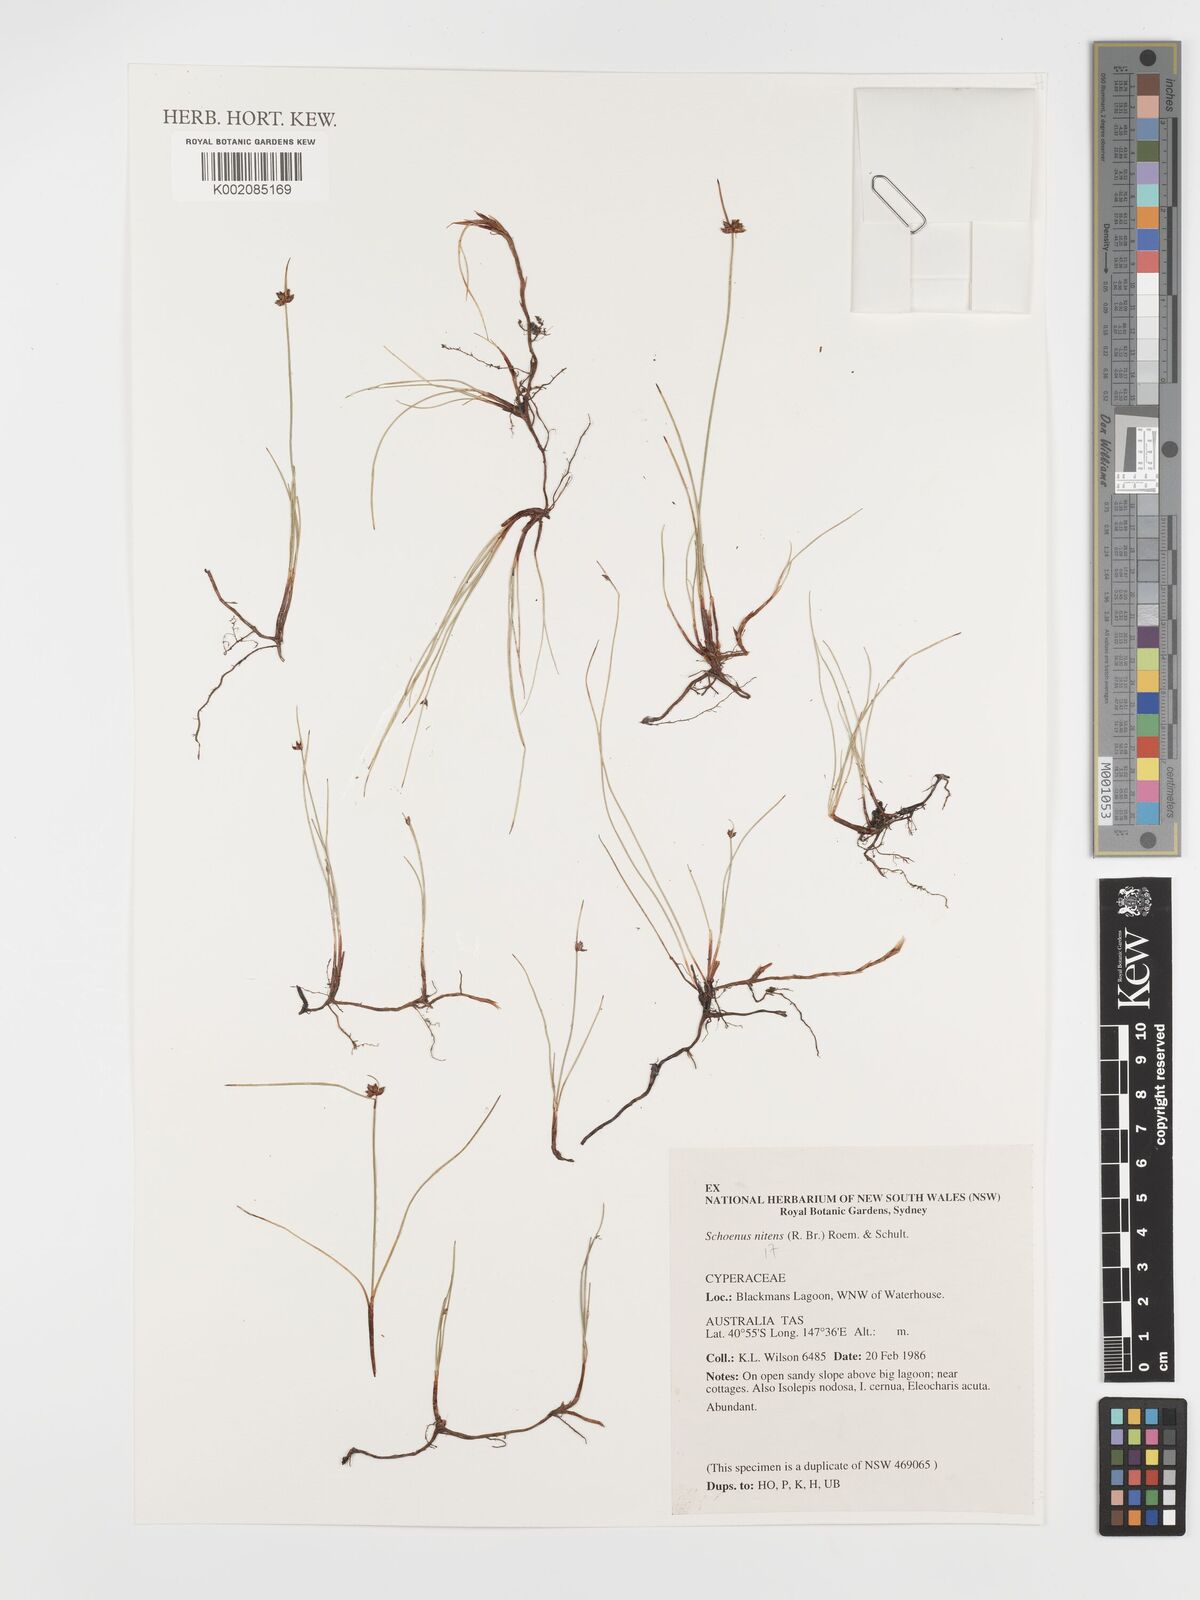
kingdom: Plantae
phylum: Tracheophyta
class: Liliopsida
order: Poales
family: Cyperaceae
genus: Schoenus
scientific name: Schoenus nitens
